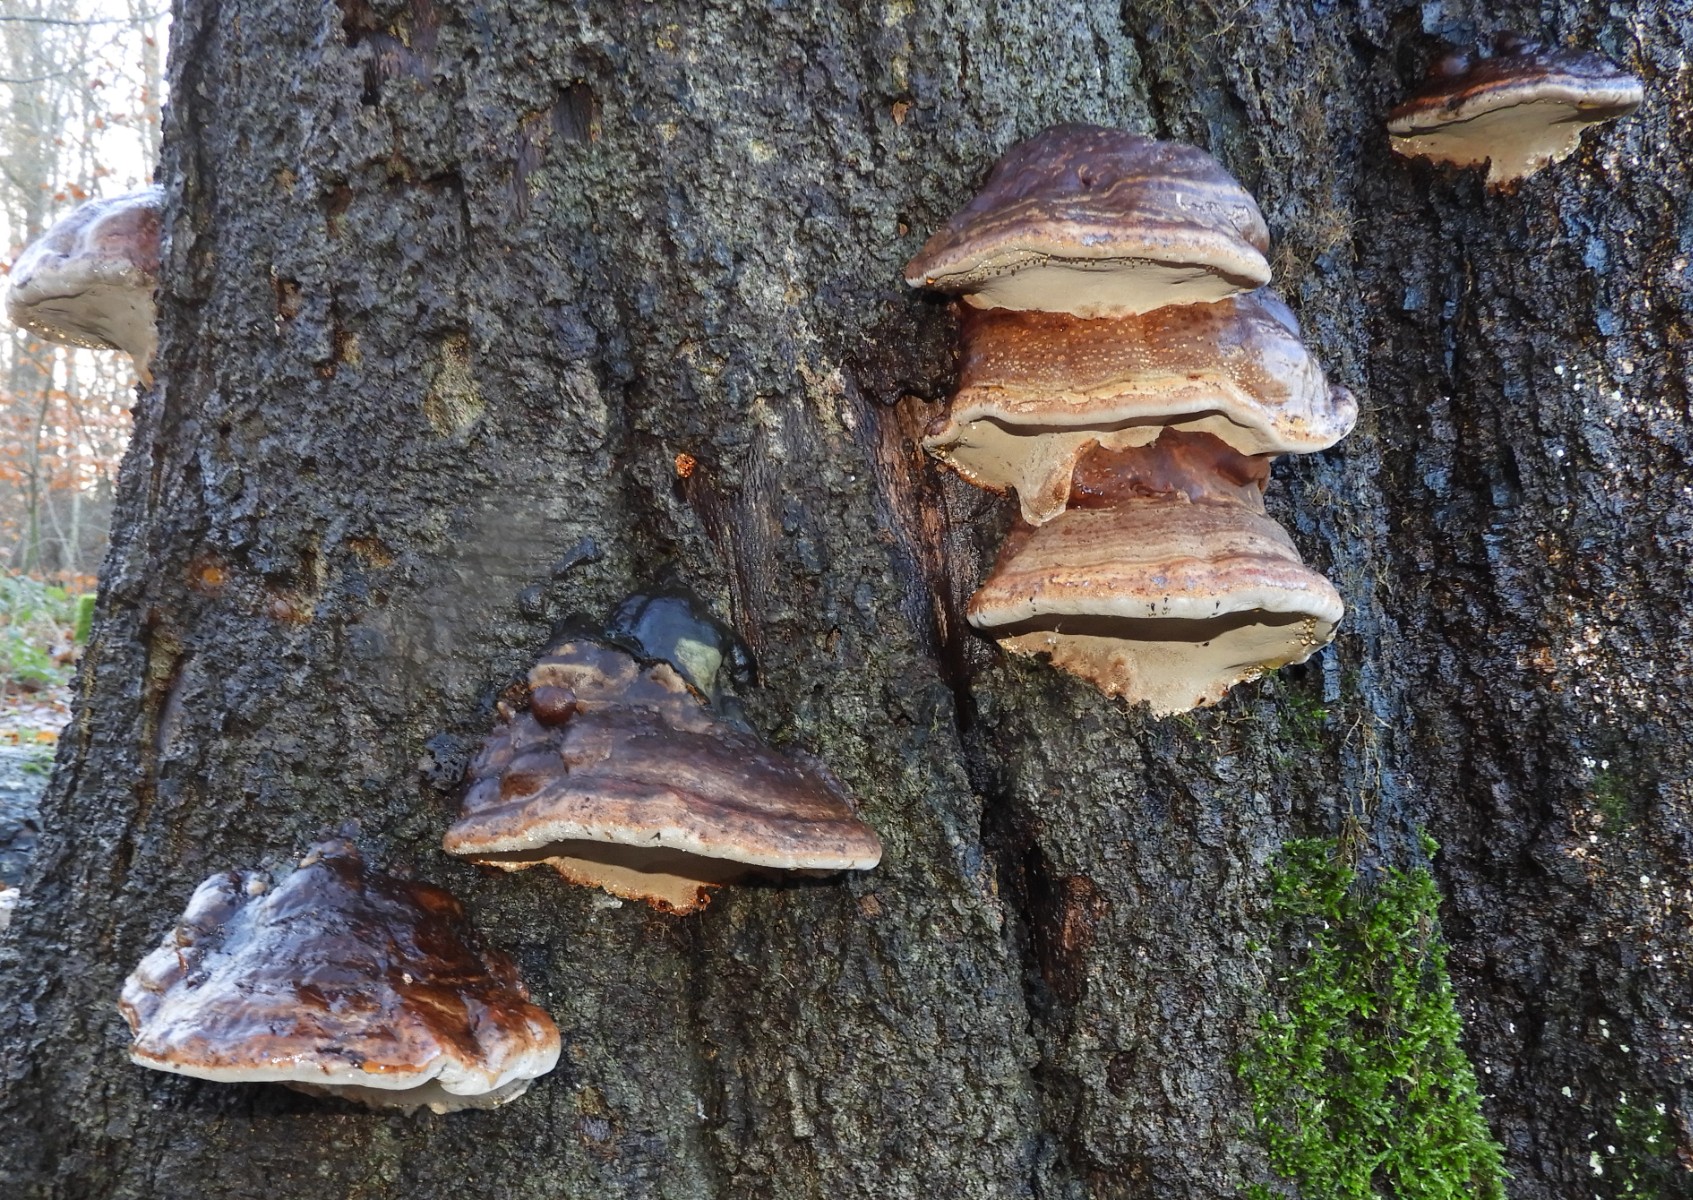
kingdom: Fungi
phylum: Basidiomycota
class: Agaricomycetes
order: Polyporales
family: Polyporaceae
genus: Ganoderma
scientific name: Ganoderma pfeifferi
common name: kobberrød lakporesvamp
